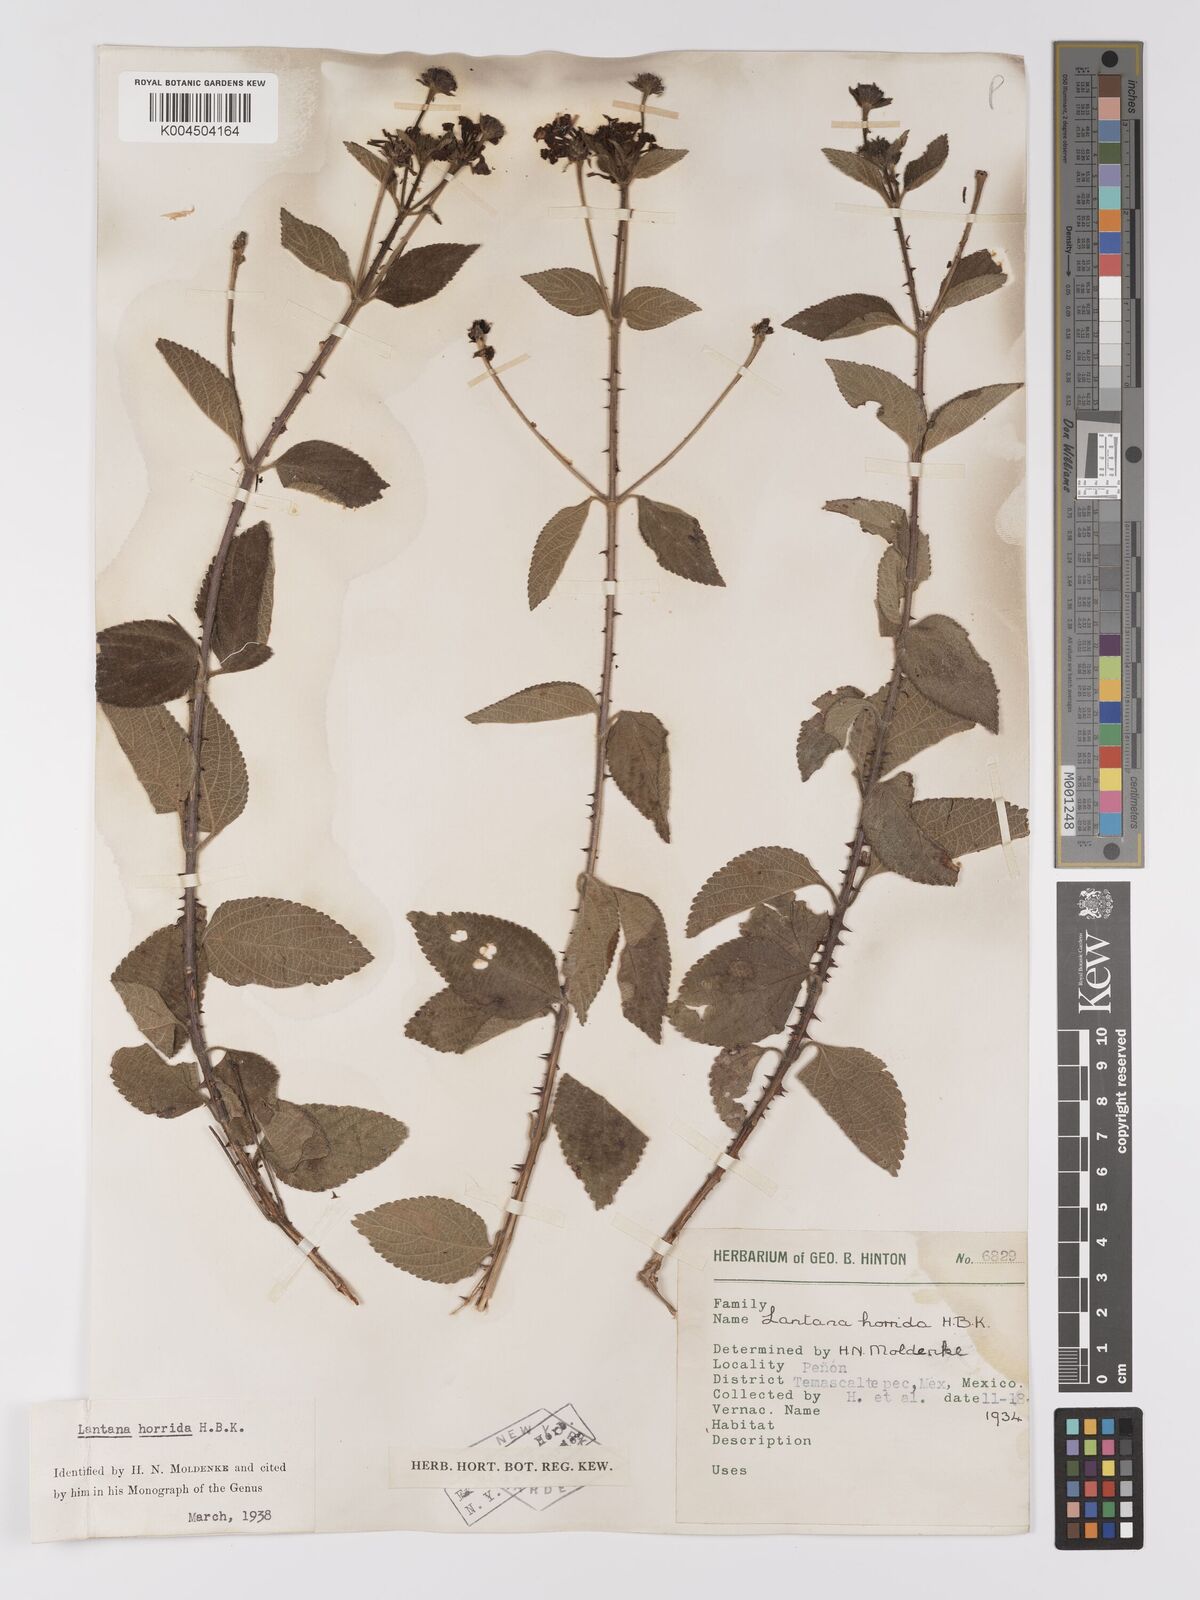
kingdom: Plantae
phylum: Tracheophyta
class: Magnoliopsida
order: Lamiales
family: Verbenaceae
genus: Lantana
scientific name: Lantana horrida
